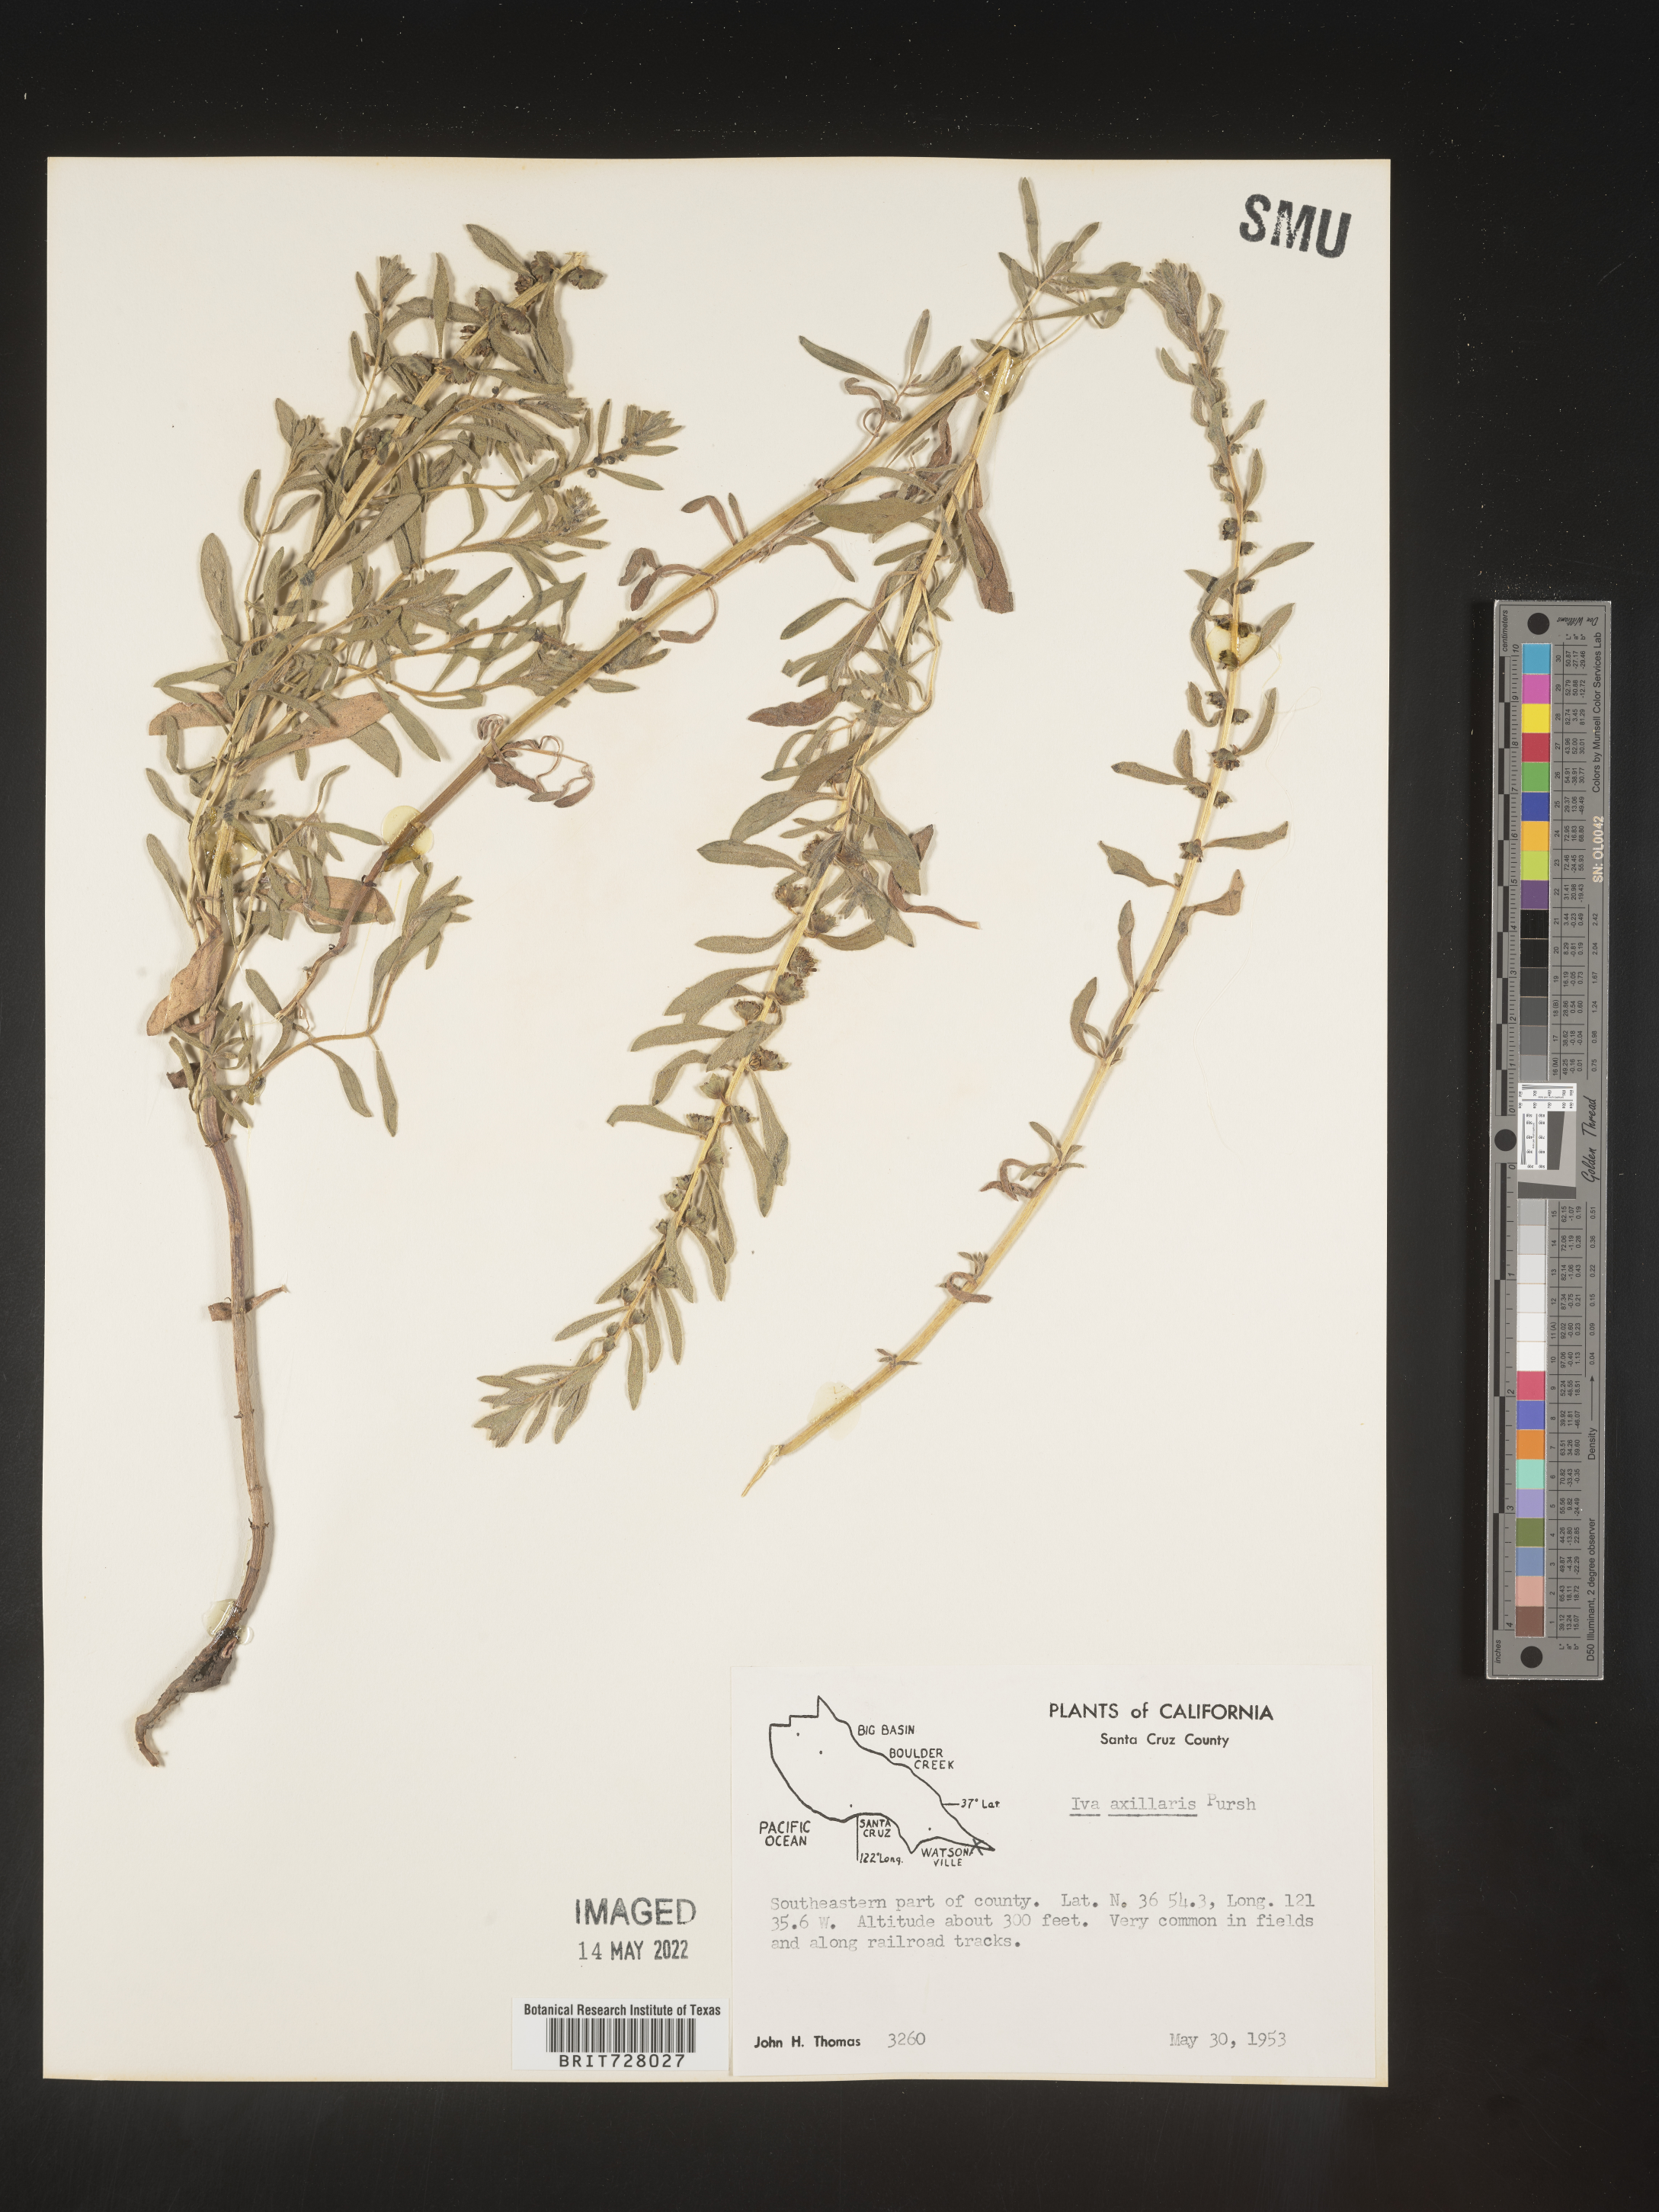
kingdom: Plantae
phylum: Tracheophyta
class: Magnoliopsida
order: Asterales
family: Asteraceae
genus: Iva
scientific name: Iva axillaris
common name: Poverty sumpweed
